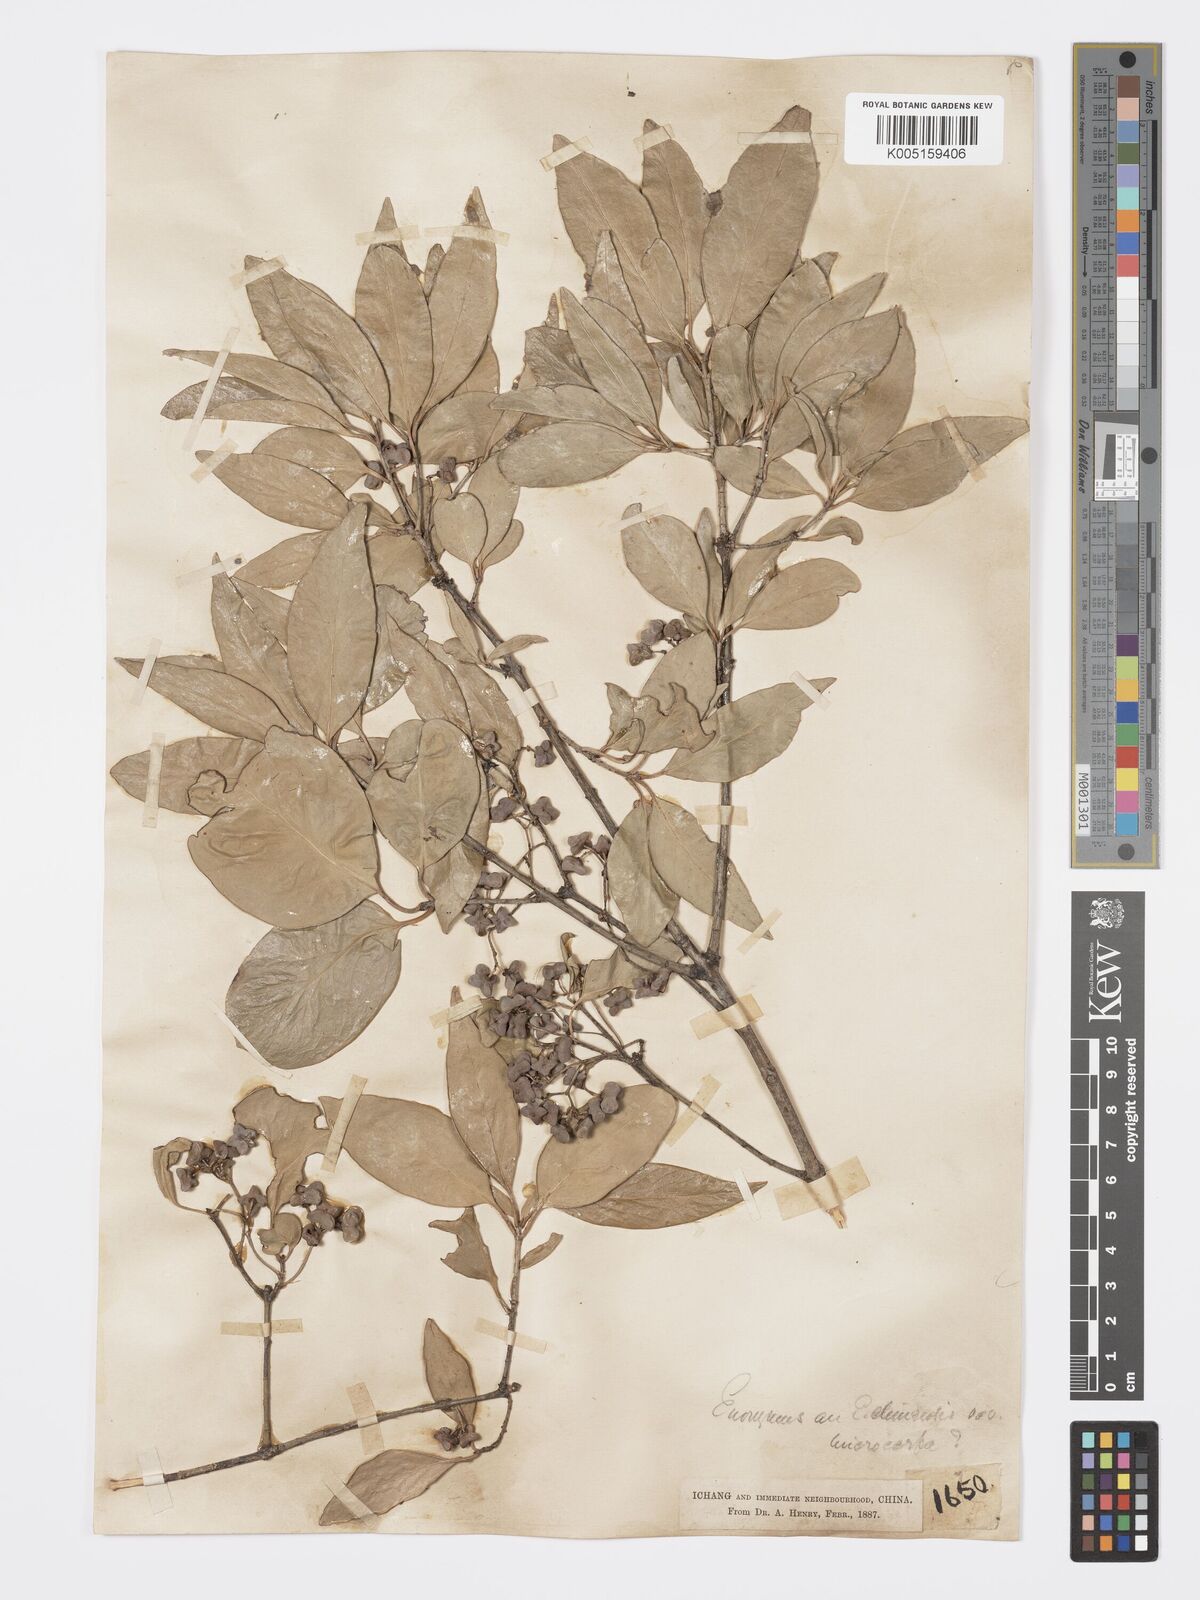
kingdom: Plantae
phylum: Tracheophyta
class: Magnoliopsida
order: Celastrales
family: Celastraceae
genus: Euonymus
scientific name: Euonymus
